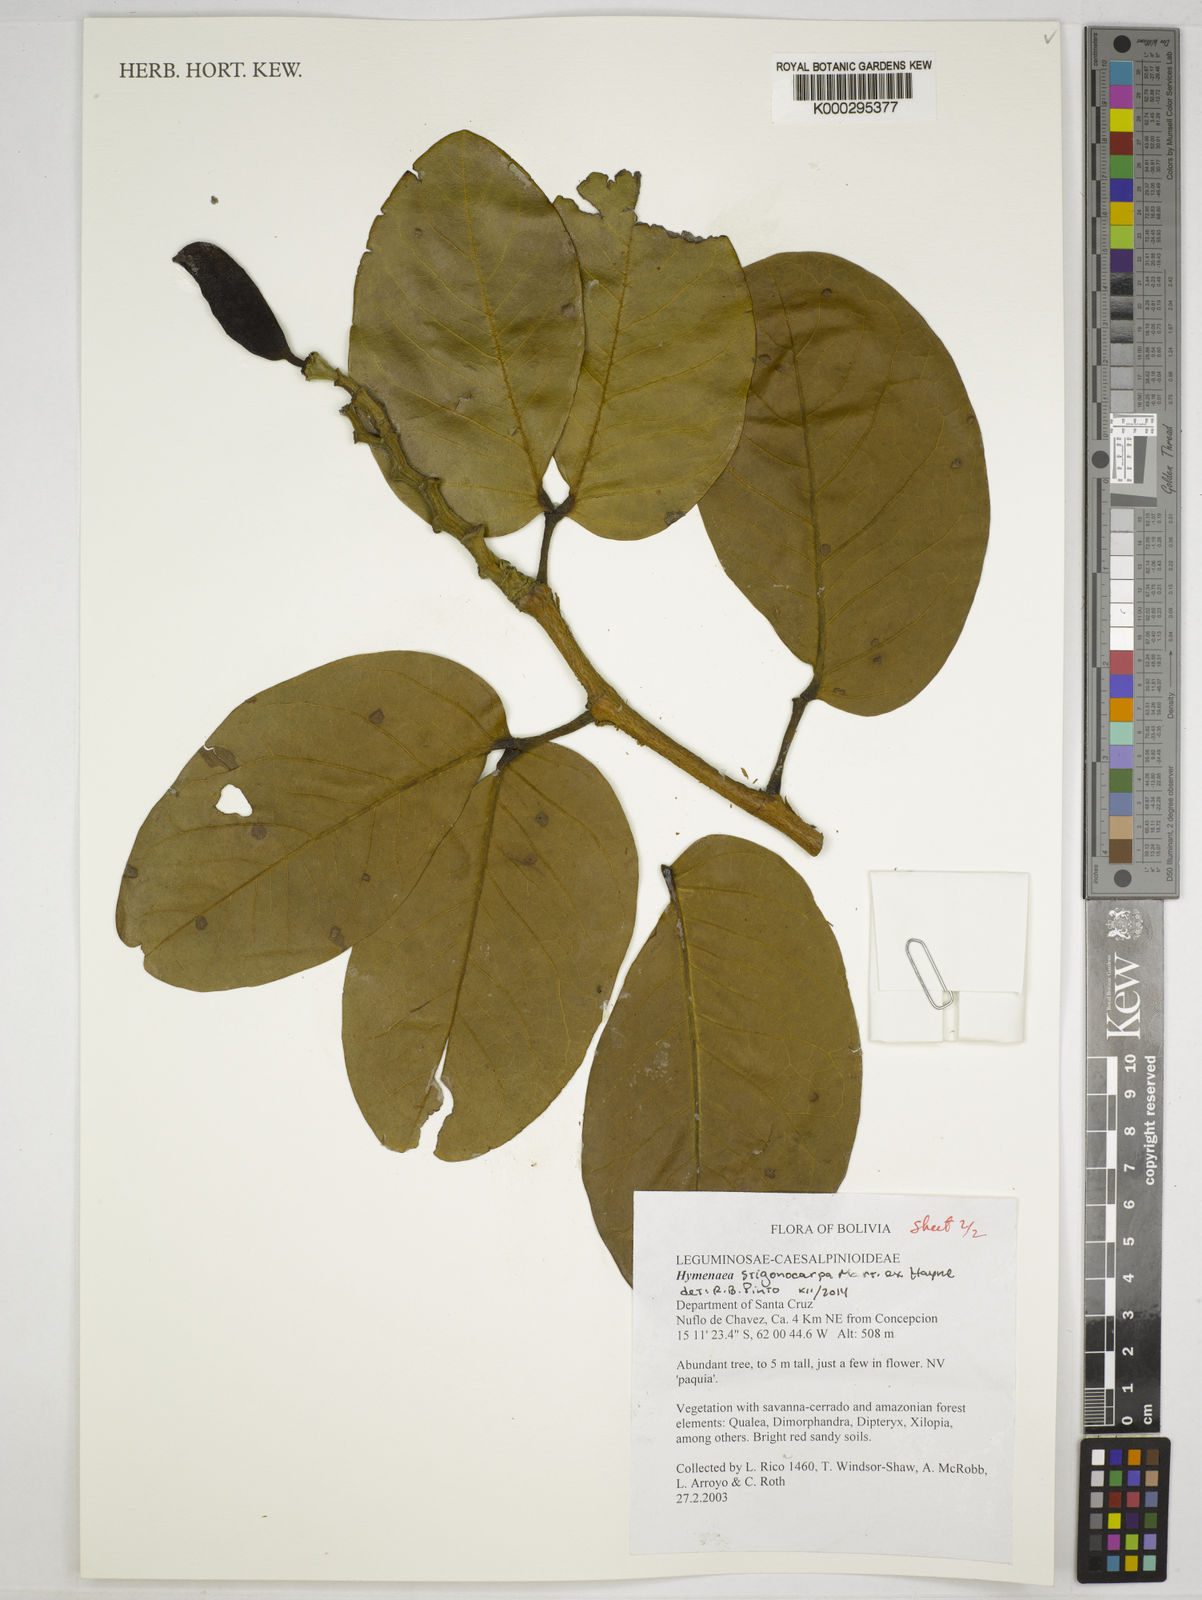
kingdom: Plantae
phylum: Tracheophyta
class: Magnoliopsida
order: Fabales
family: Fabaceae
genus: Hymenaea
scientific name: Hymenaea
